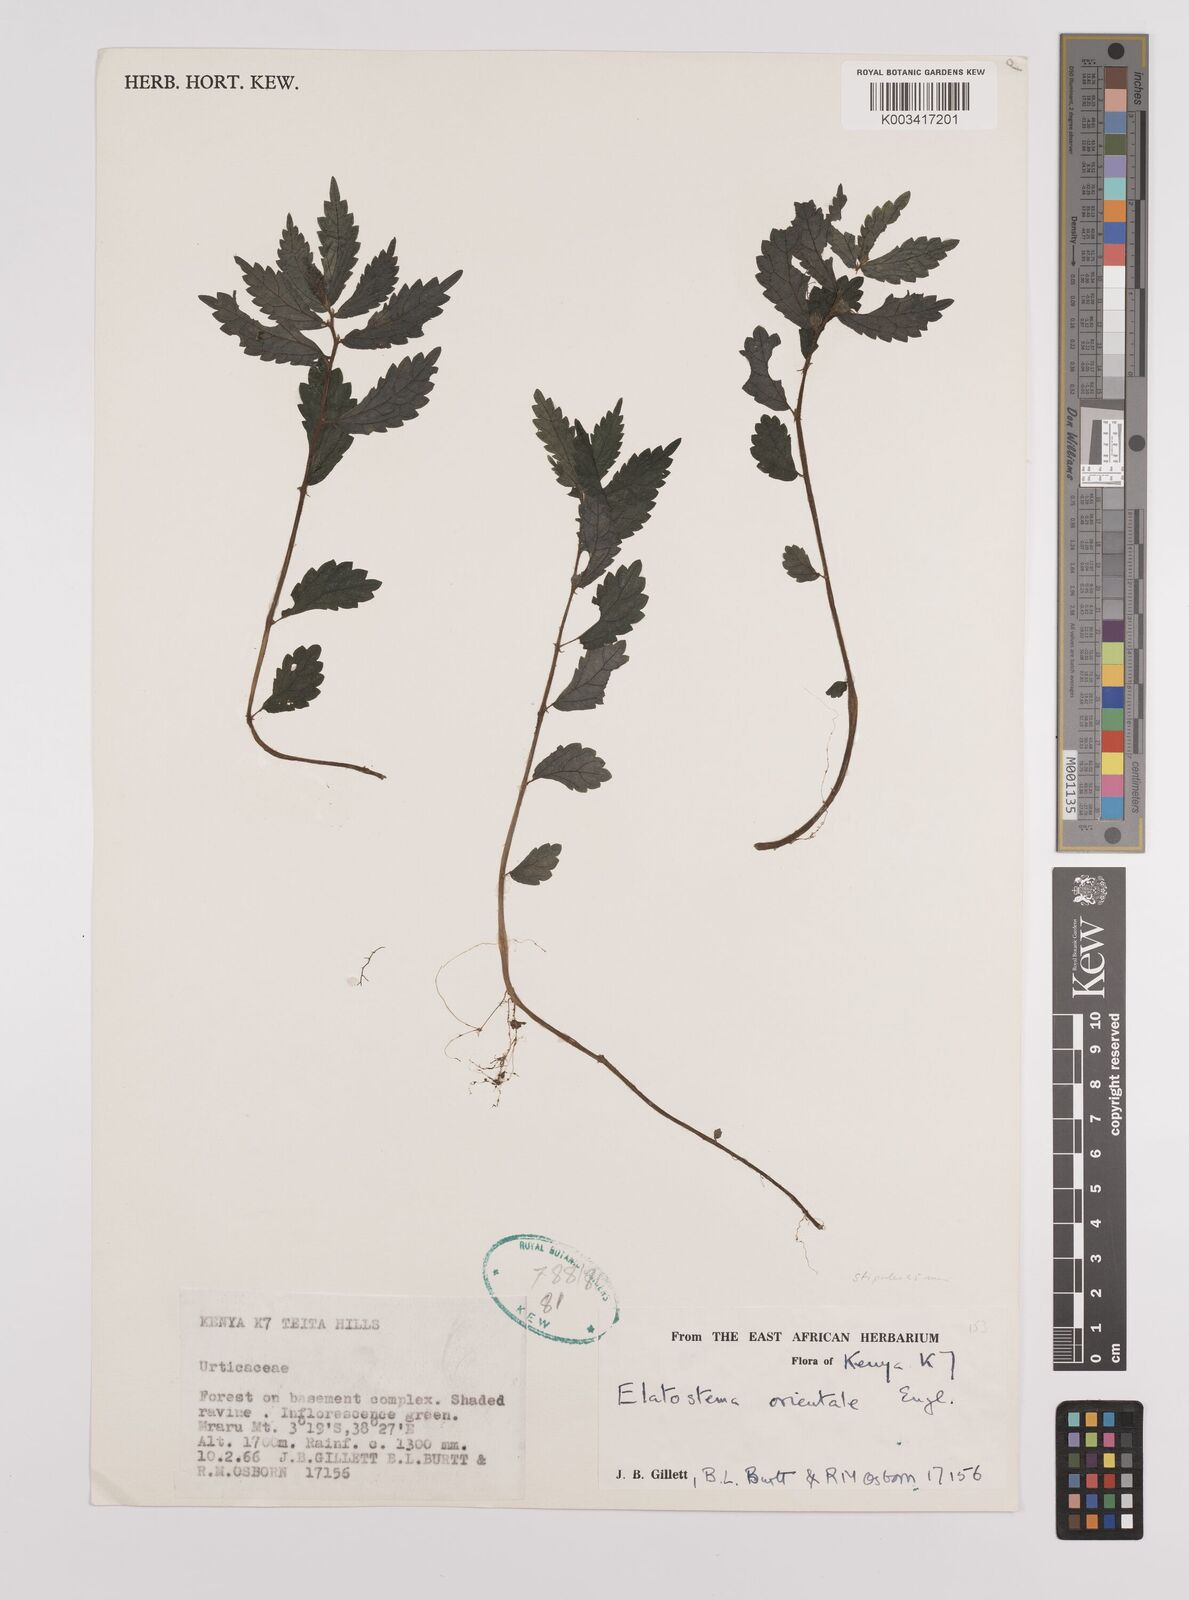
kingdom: Plantae
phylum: Tracheophyta
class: Magnoliopsida
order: Rosales
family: Urticaceae
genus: Elatostema
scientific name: Elatostema monticola
